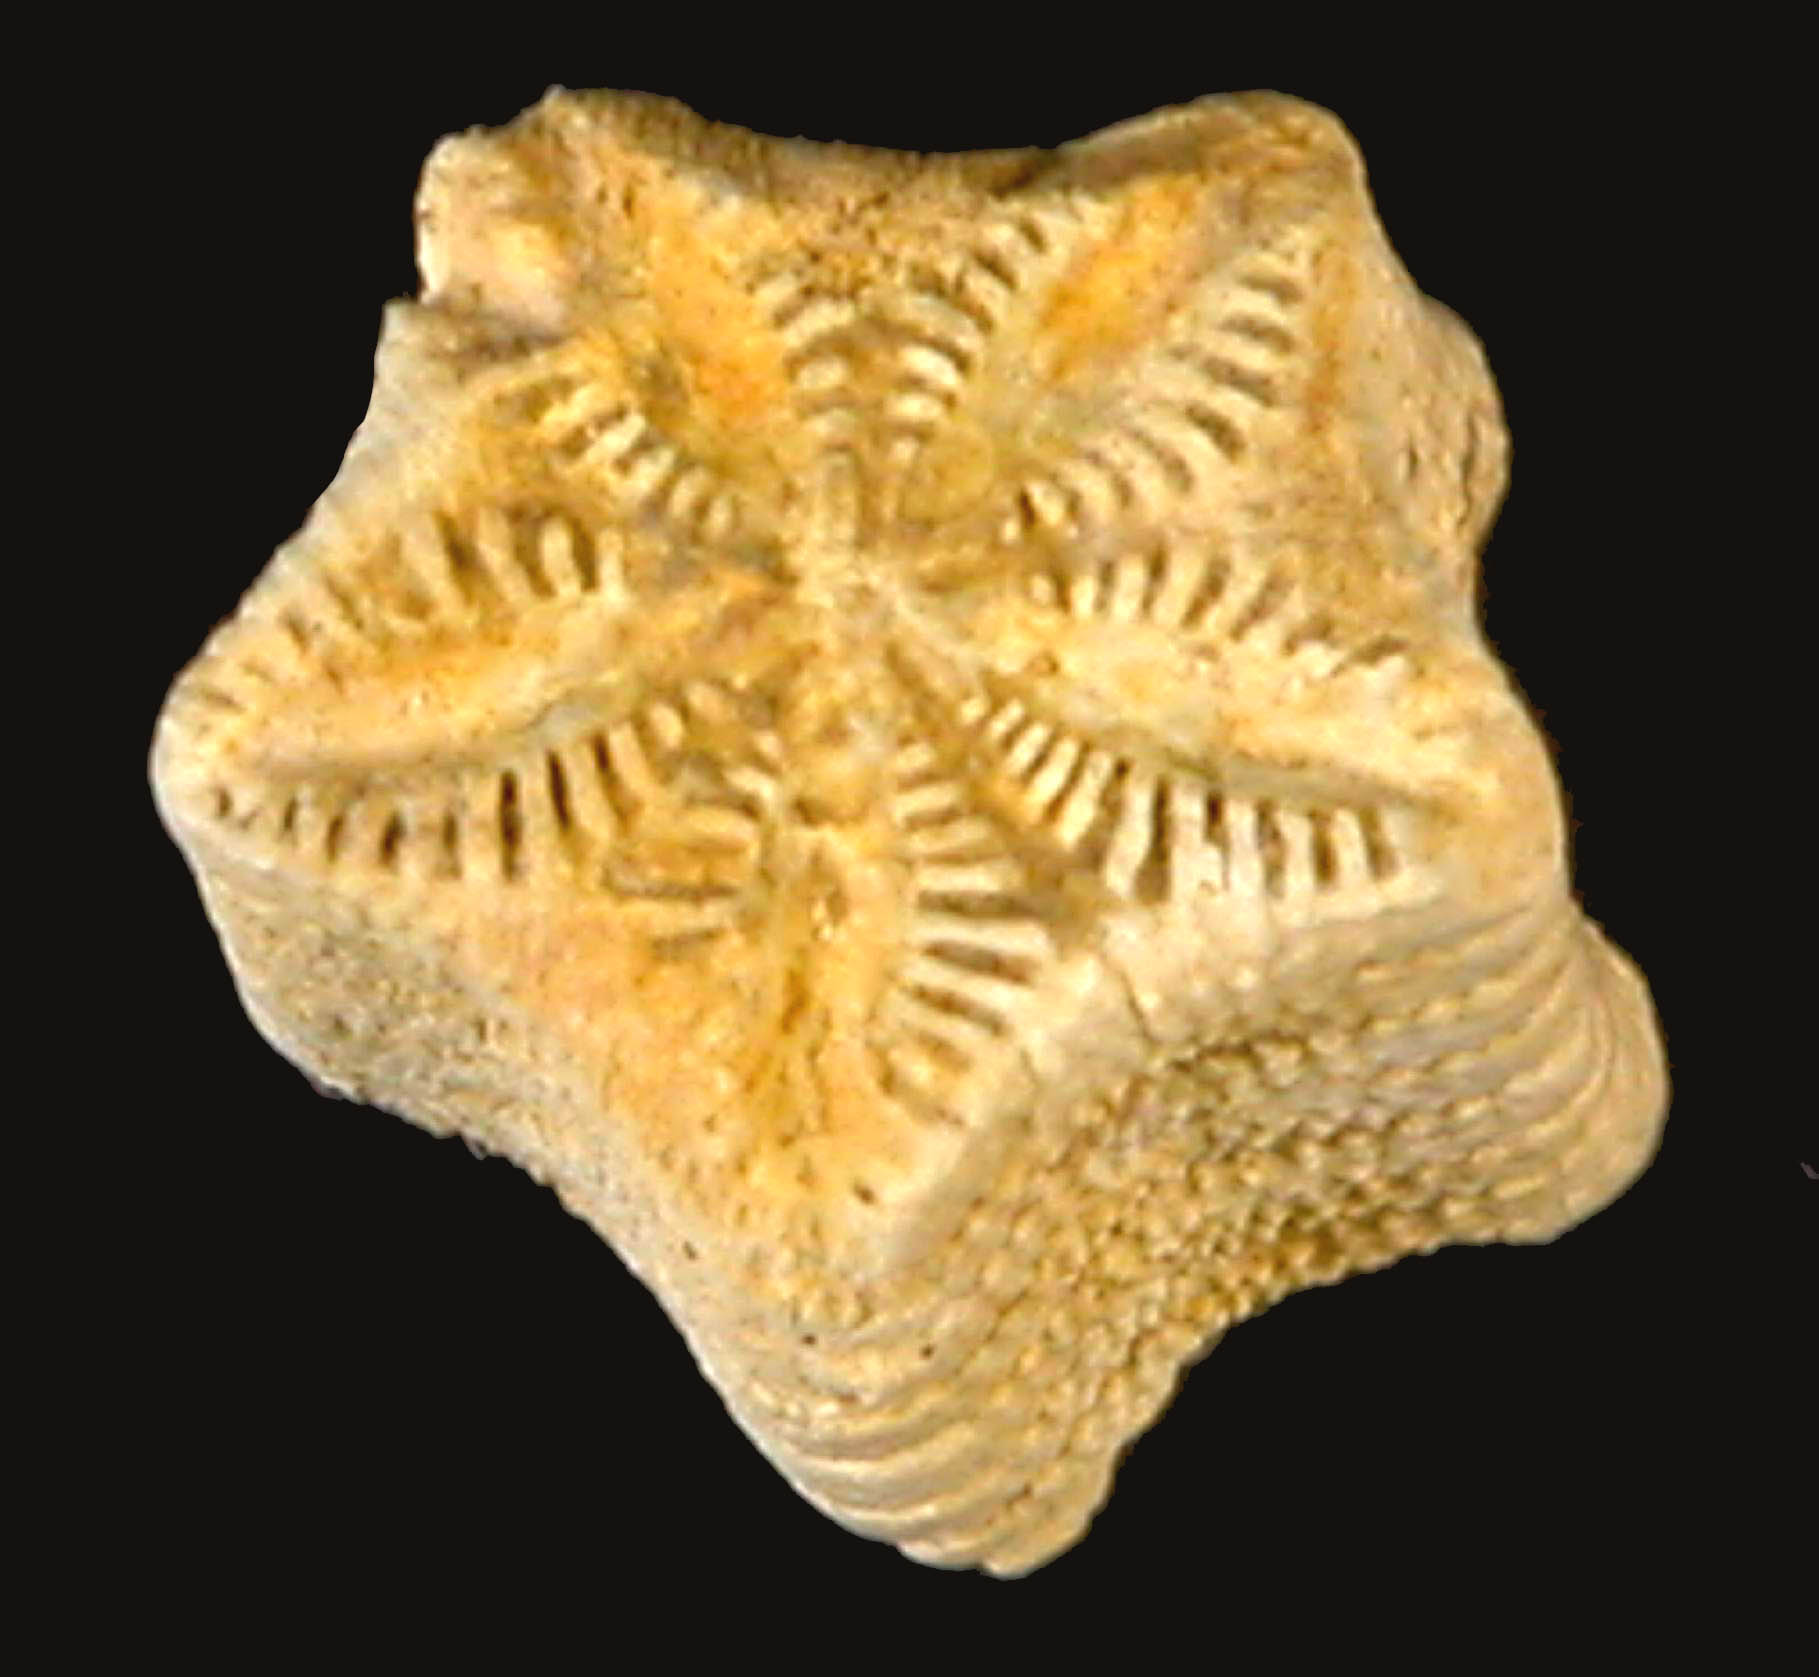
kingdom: Animalia
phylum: Echinodermata
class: Crinoidea
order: Isocrinida
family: Pentacrinitidae
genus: Pentacrinus
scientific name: Pentacrinus
